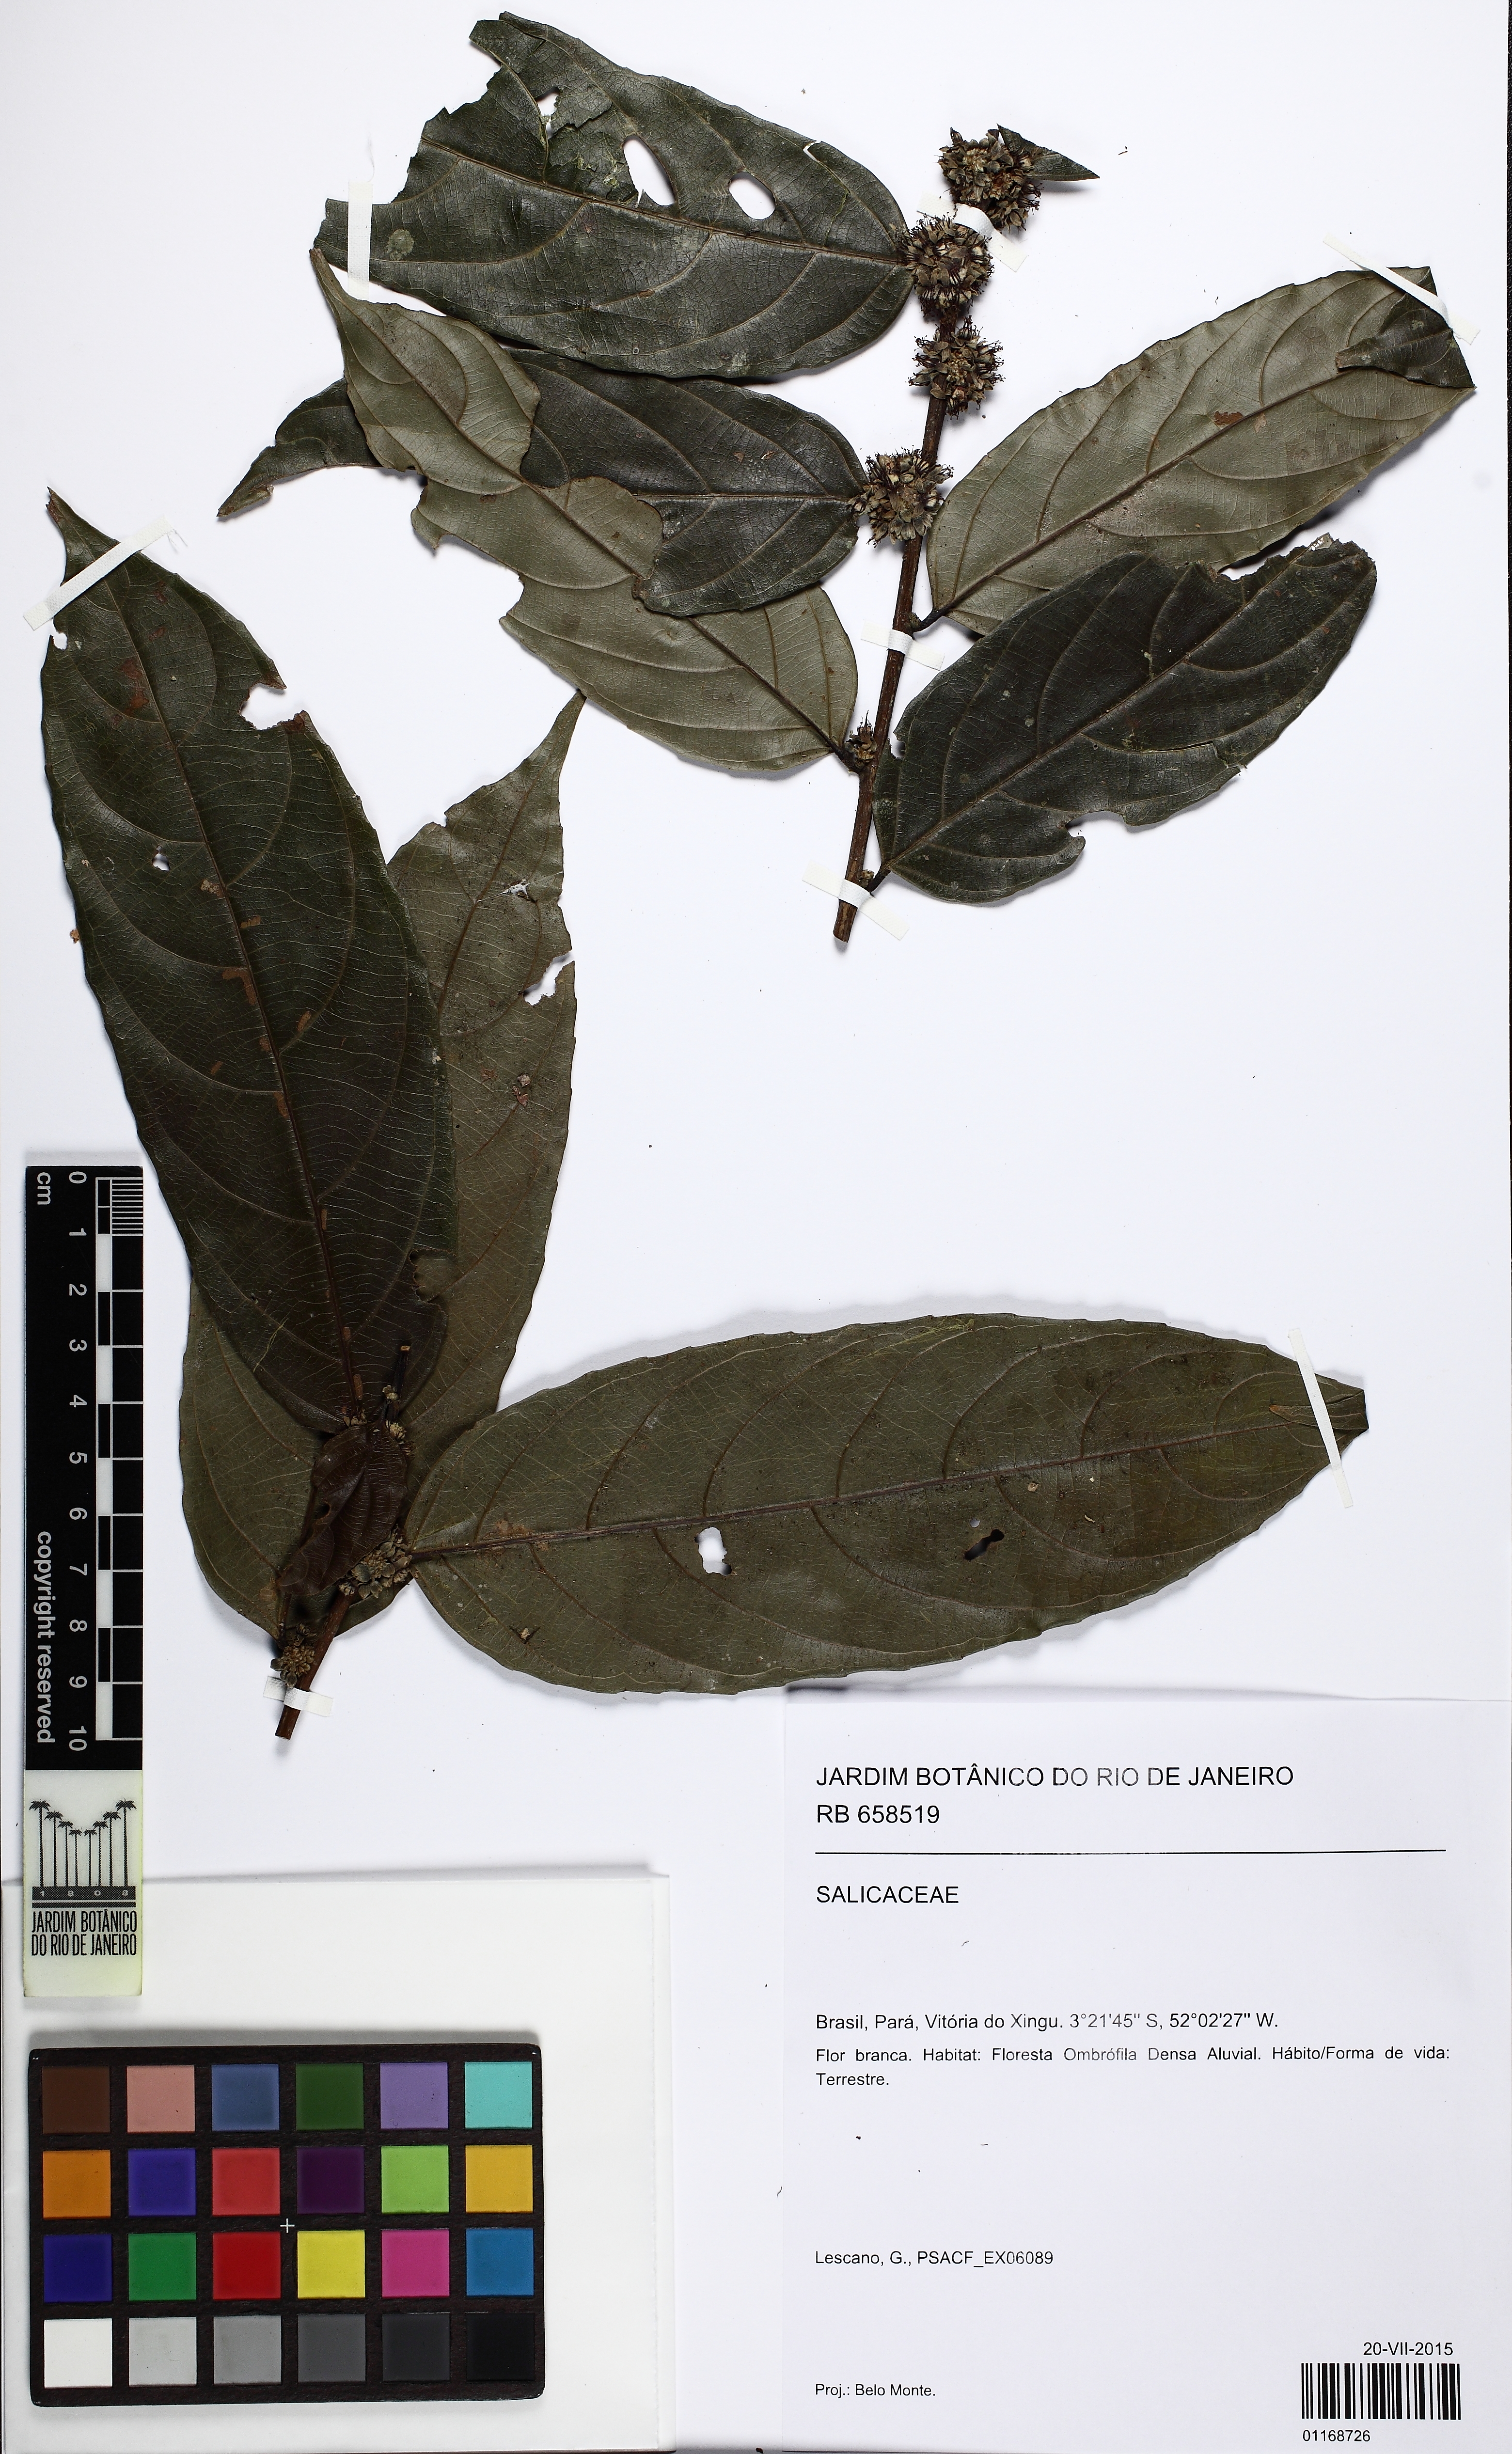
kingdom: Plantae
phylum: Tracheophyta
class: Magnoliopsida
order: Malpighiales
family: Salicaceae
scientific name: Salicaceae
